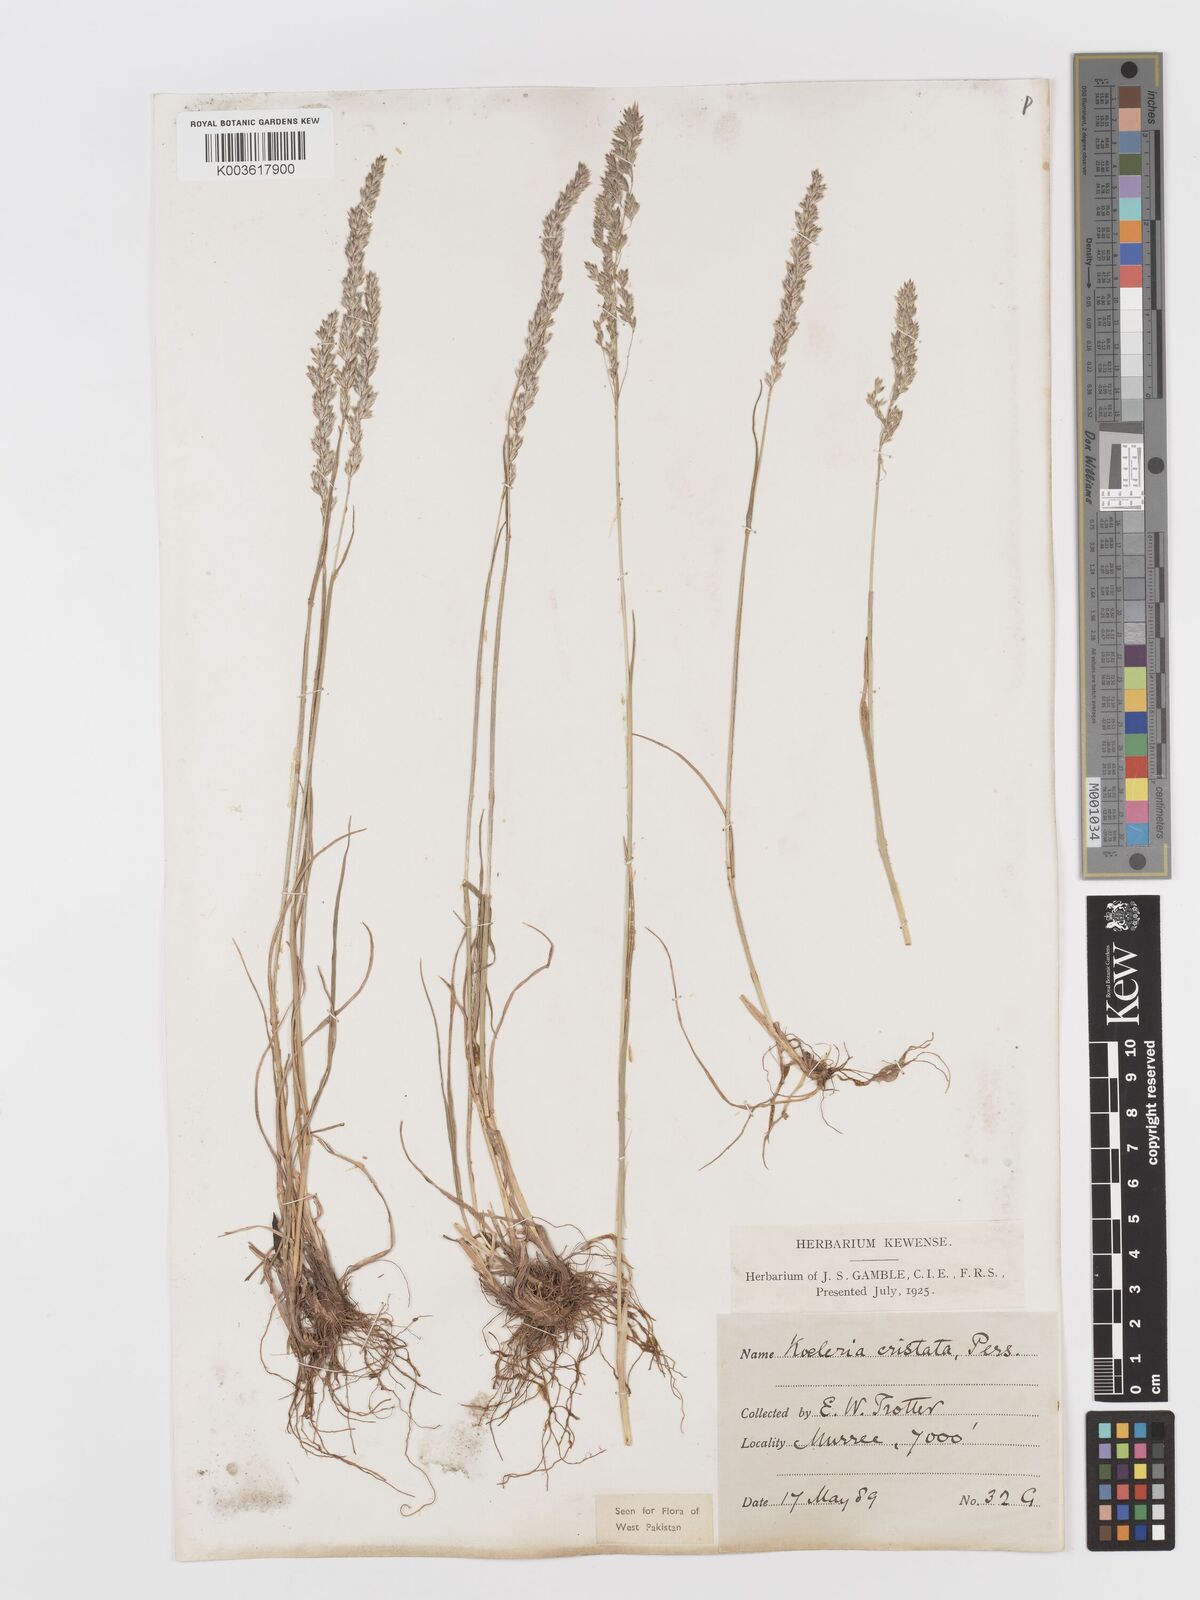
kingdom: Plantae
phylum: Tracheophyta
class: Liliopsida
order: Poales
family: Poaceae
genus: Koeleria
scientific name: Koeleria
